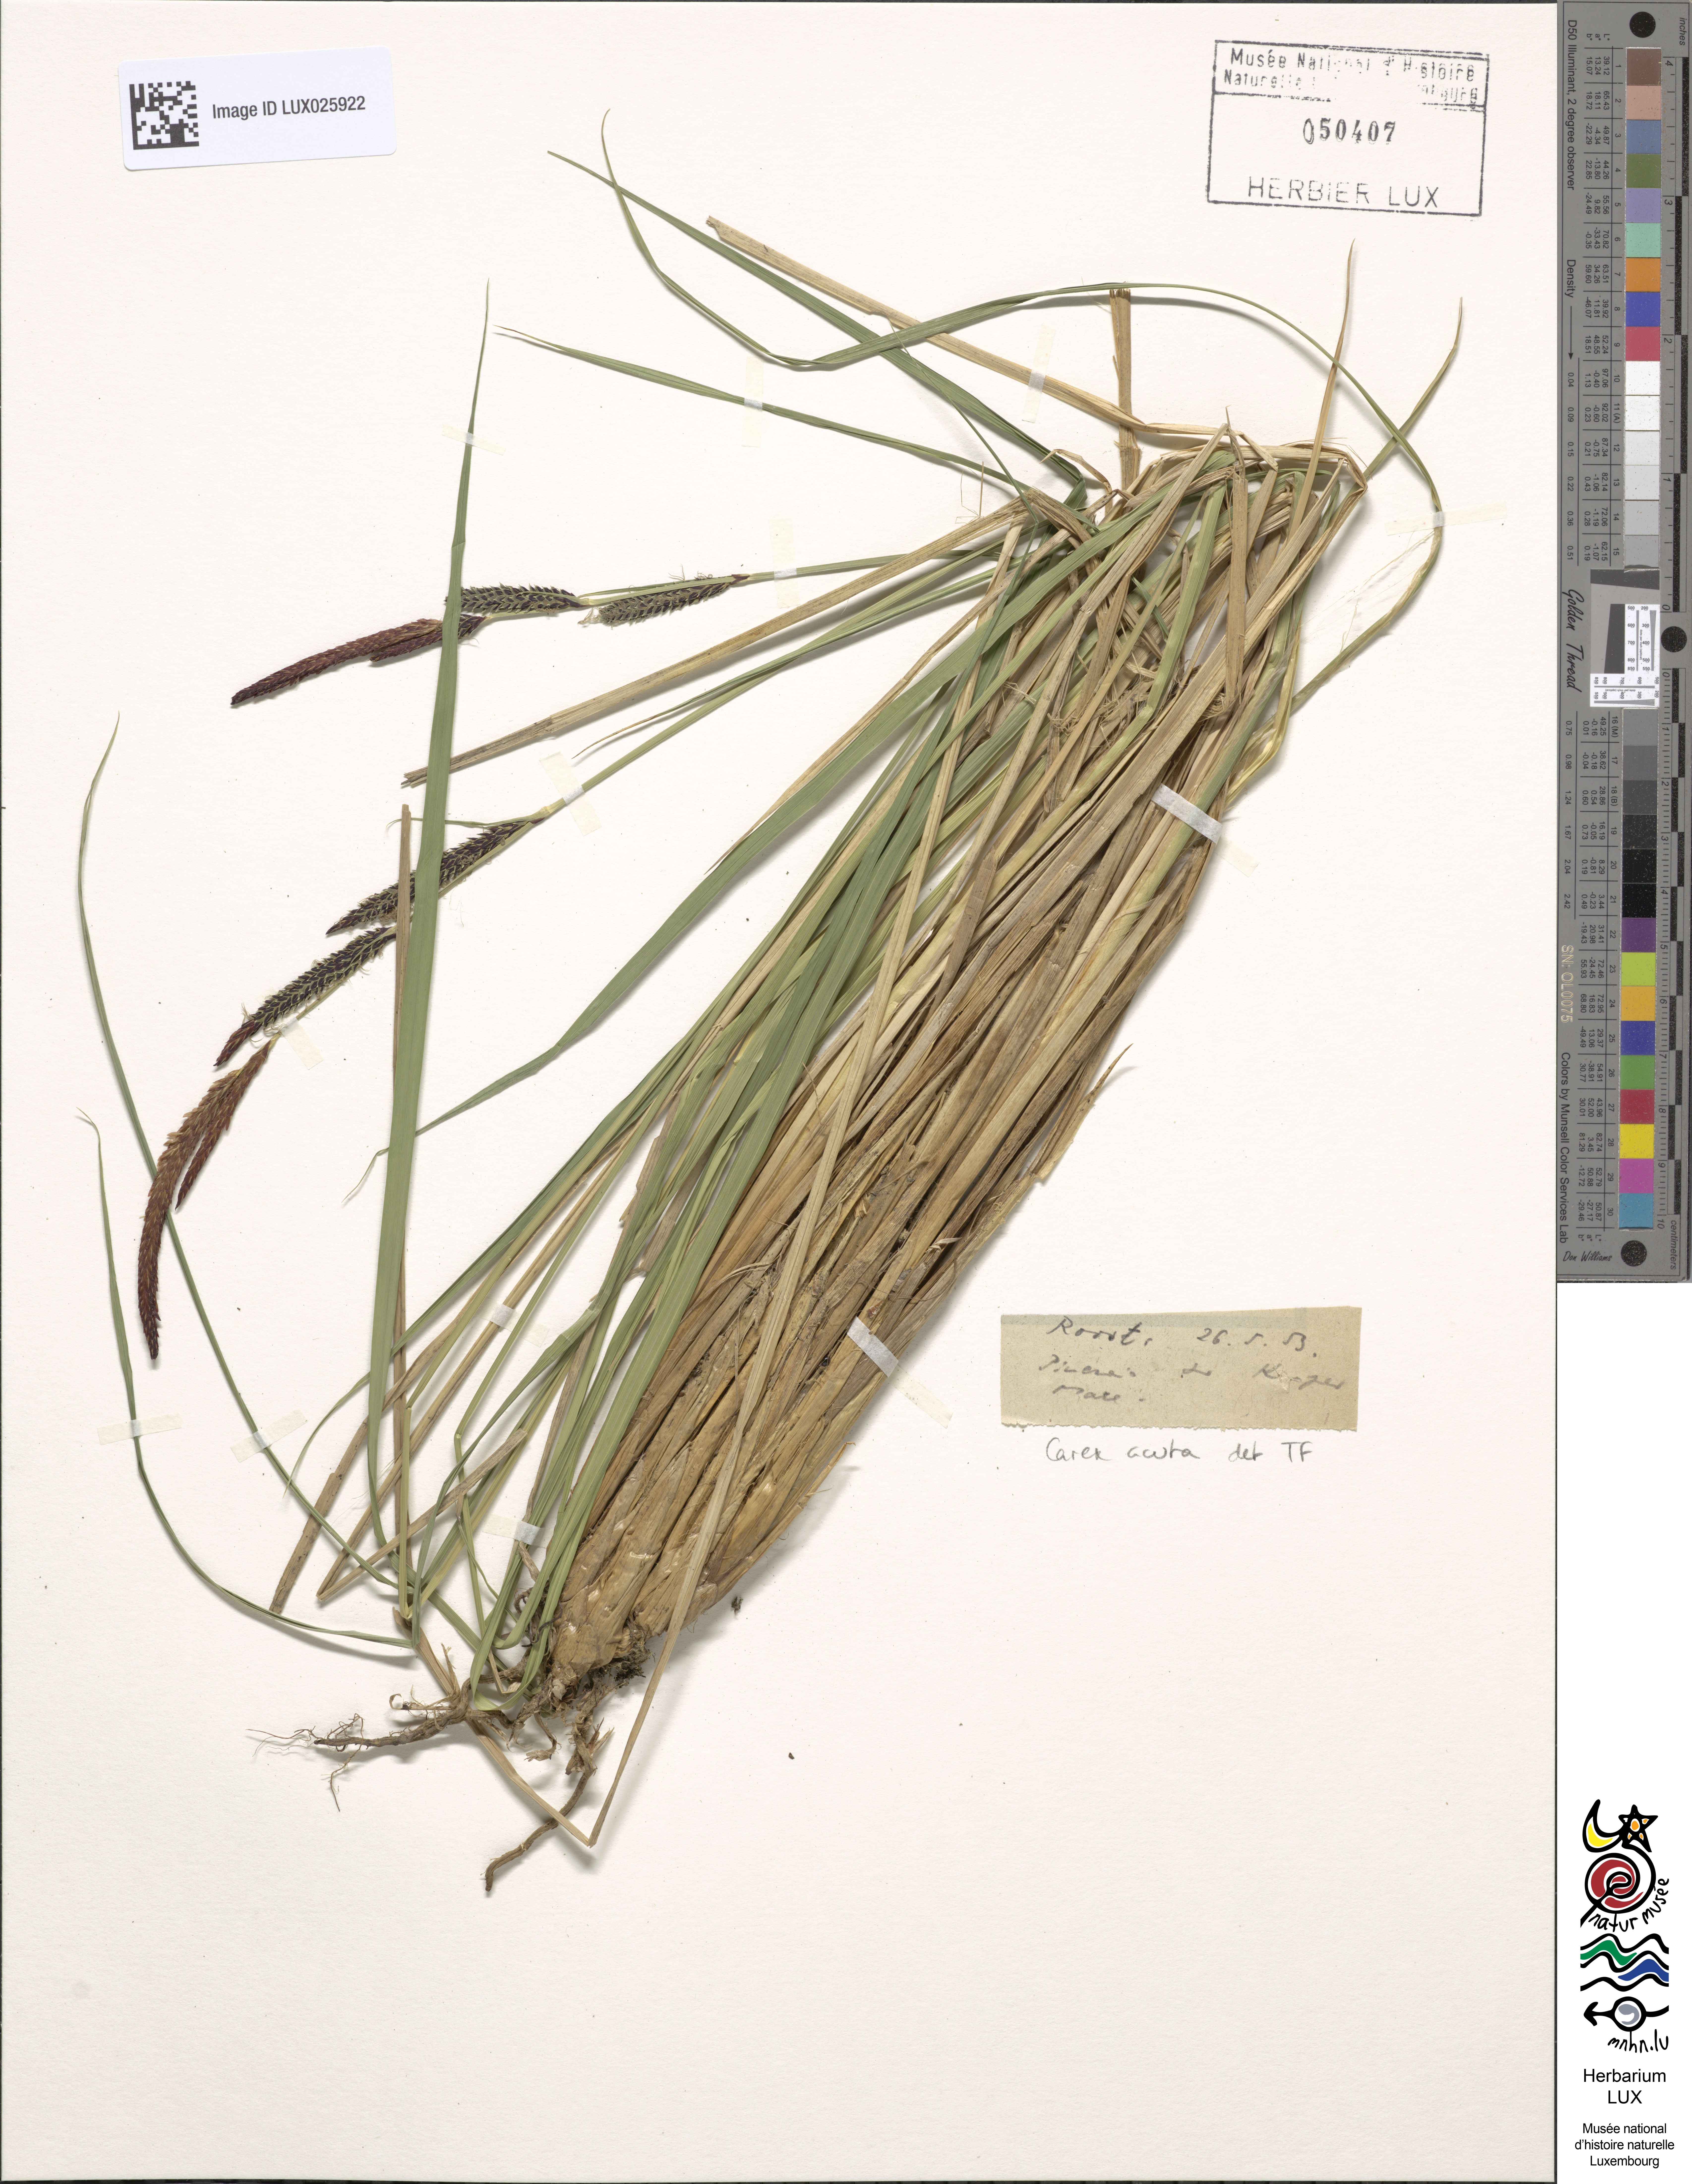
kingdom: Plantae
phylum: Tracheophyta
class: Liliopsida
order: Poales
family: Cyperaceae
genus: Carex
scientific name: Carex acuta
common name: Slender tufted-sedge
